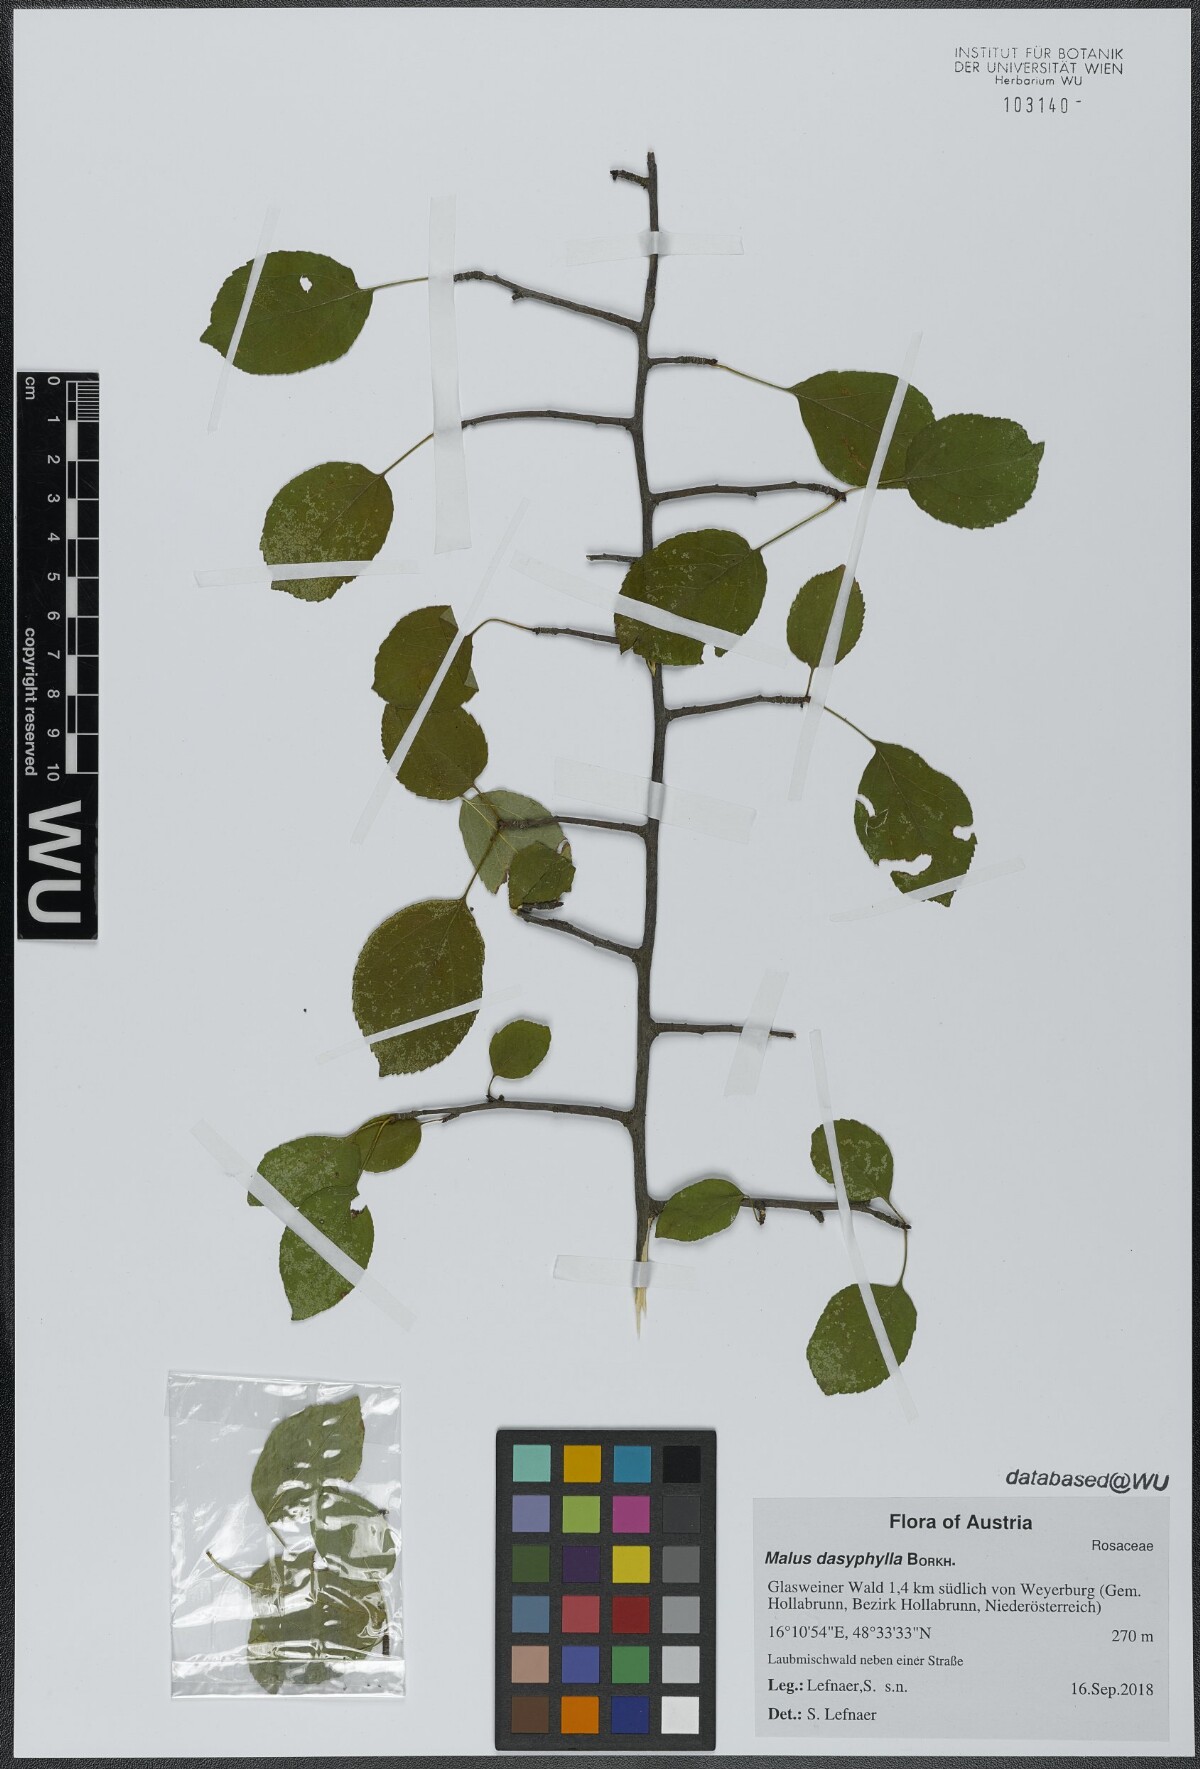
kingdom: Plantae
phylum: Tracheophyta
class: Magnoliopsida
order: Rosales
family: Rosaceae
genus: Malus
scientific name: Malus dasyphylla
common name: Paradise apple
